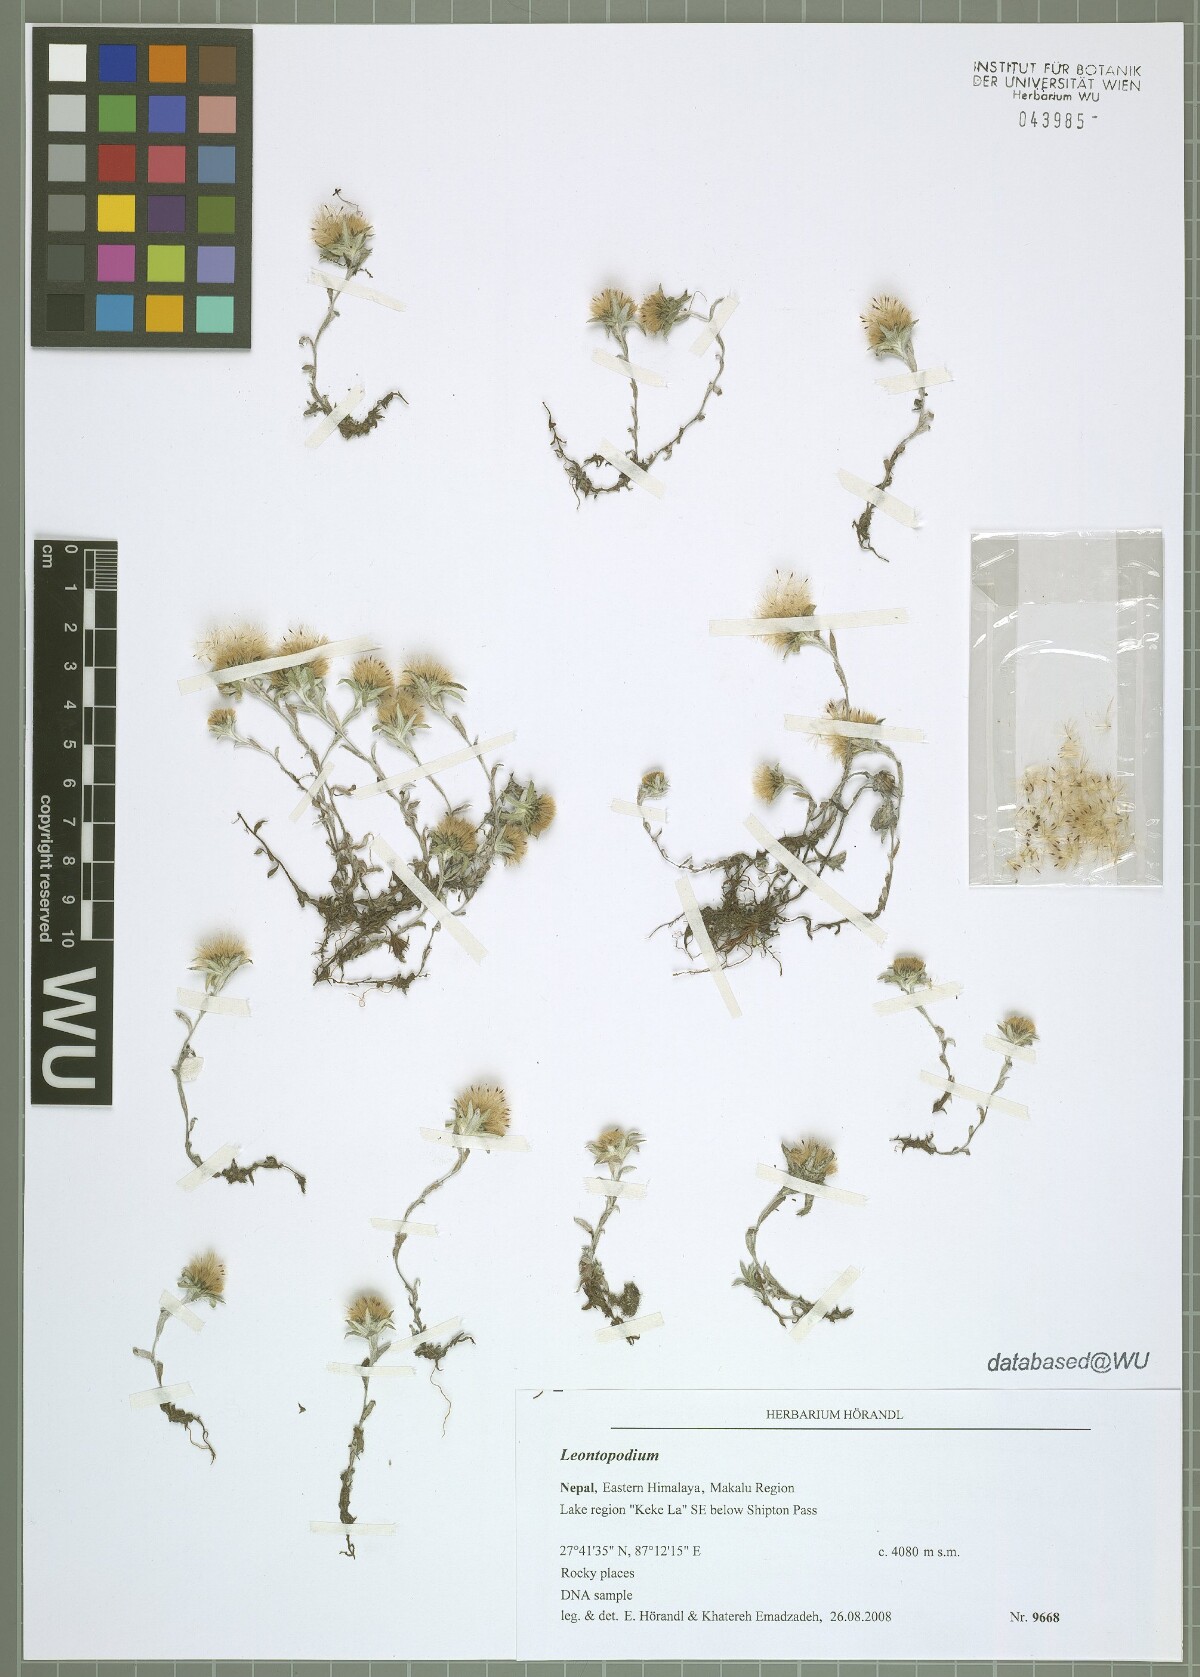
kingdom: Plantae
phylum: Tracheophyta
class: Magnoliopsida
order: Asterales
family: Asteraceae
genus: Leontopodium
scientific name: Leontopodium
